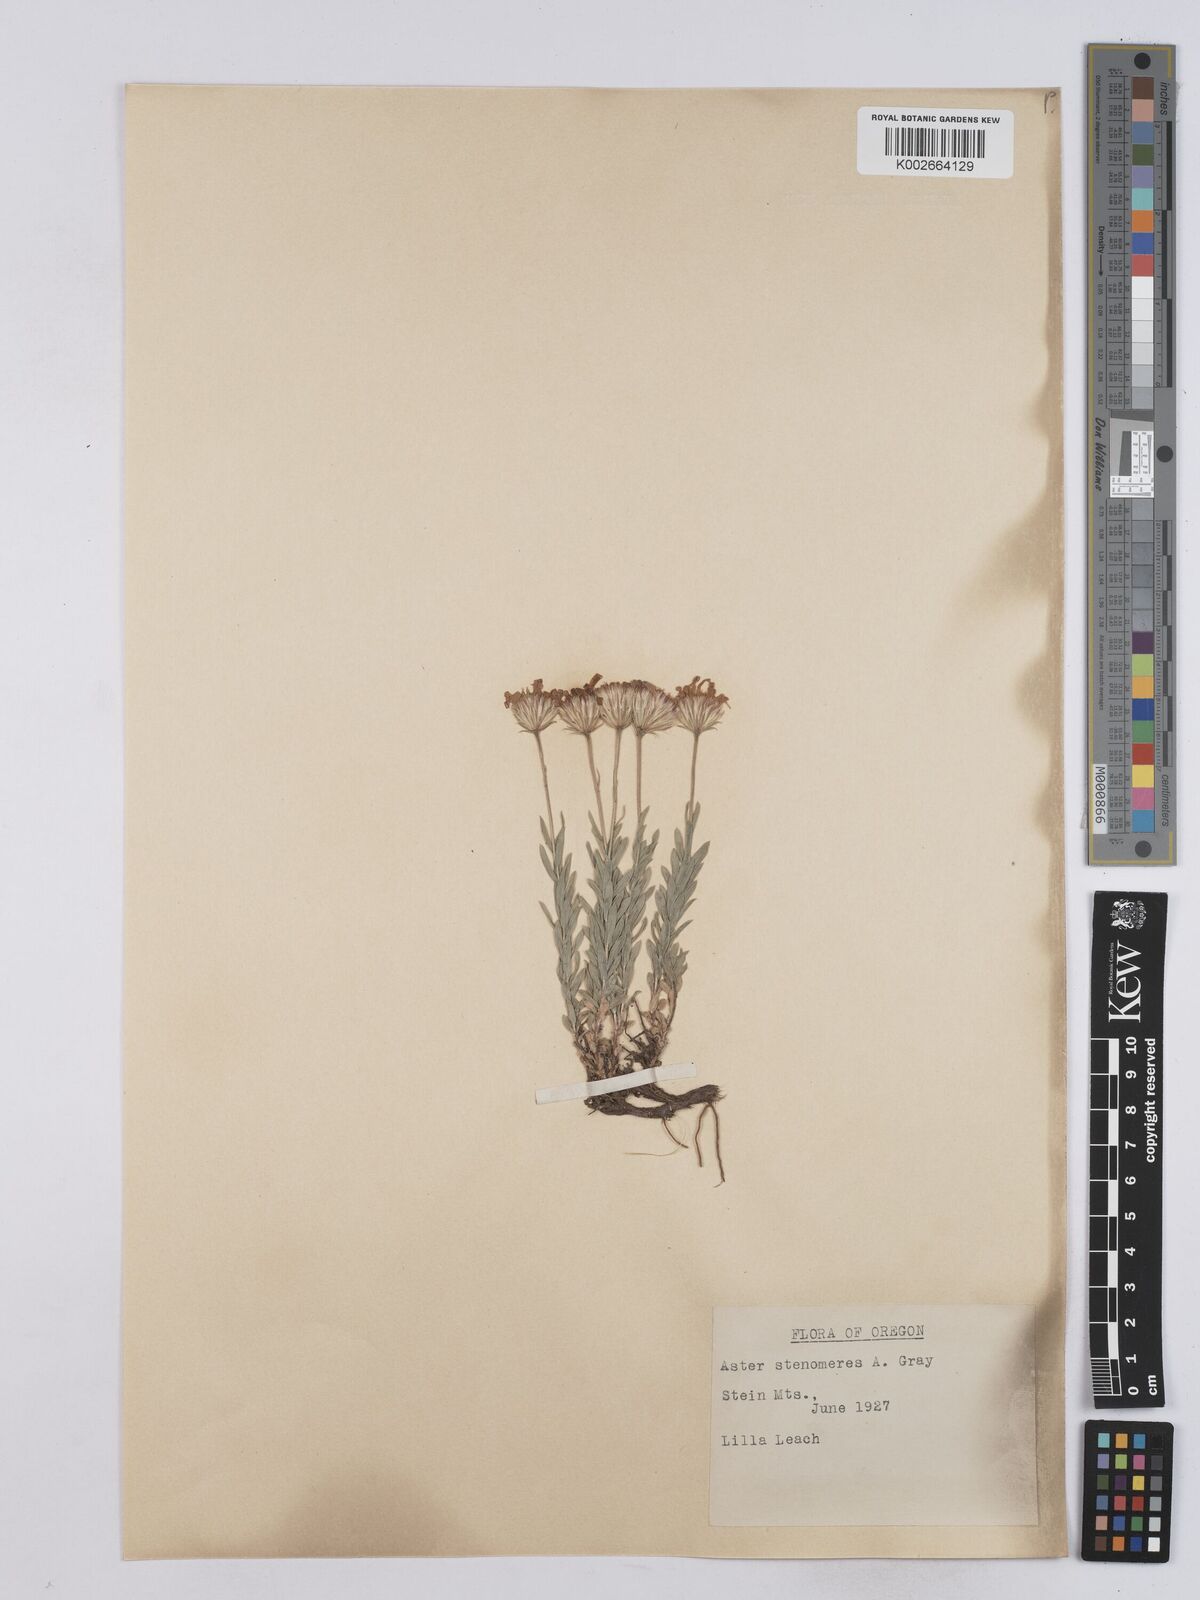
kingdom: Plantae
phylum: Tracheophyta
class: Magnoliopsida
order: Asterales
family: Asteraceae
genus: Ionactis
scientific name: Ionactis stenomeres
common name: Rocky mountain ankle-aster
